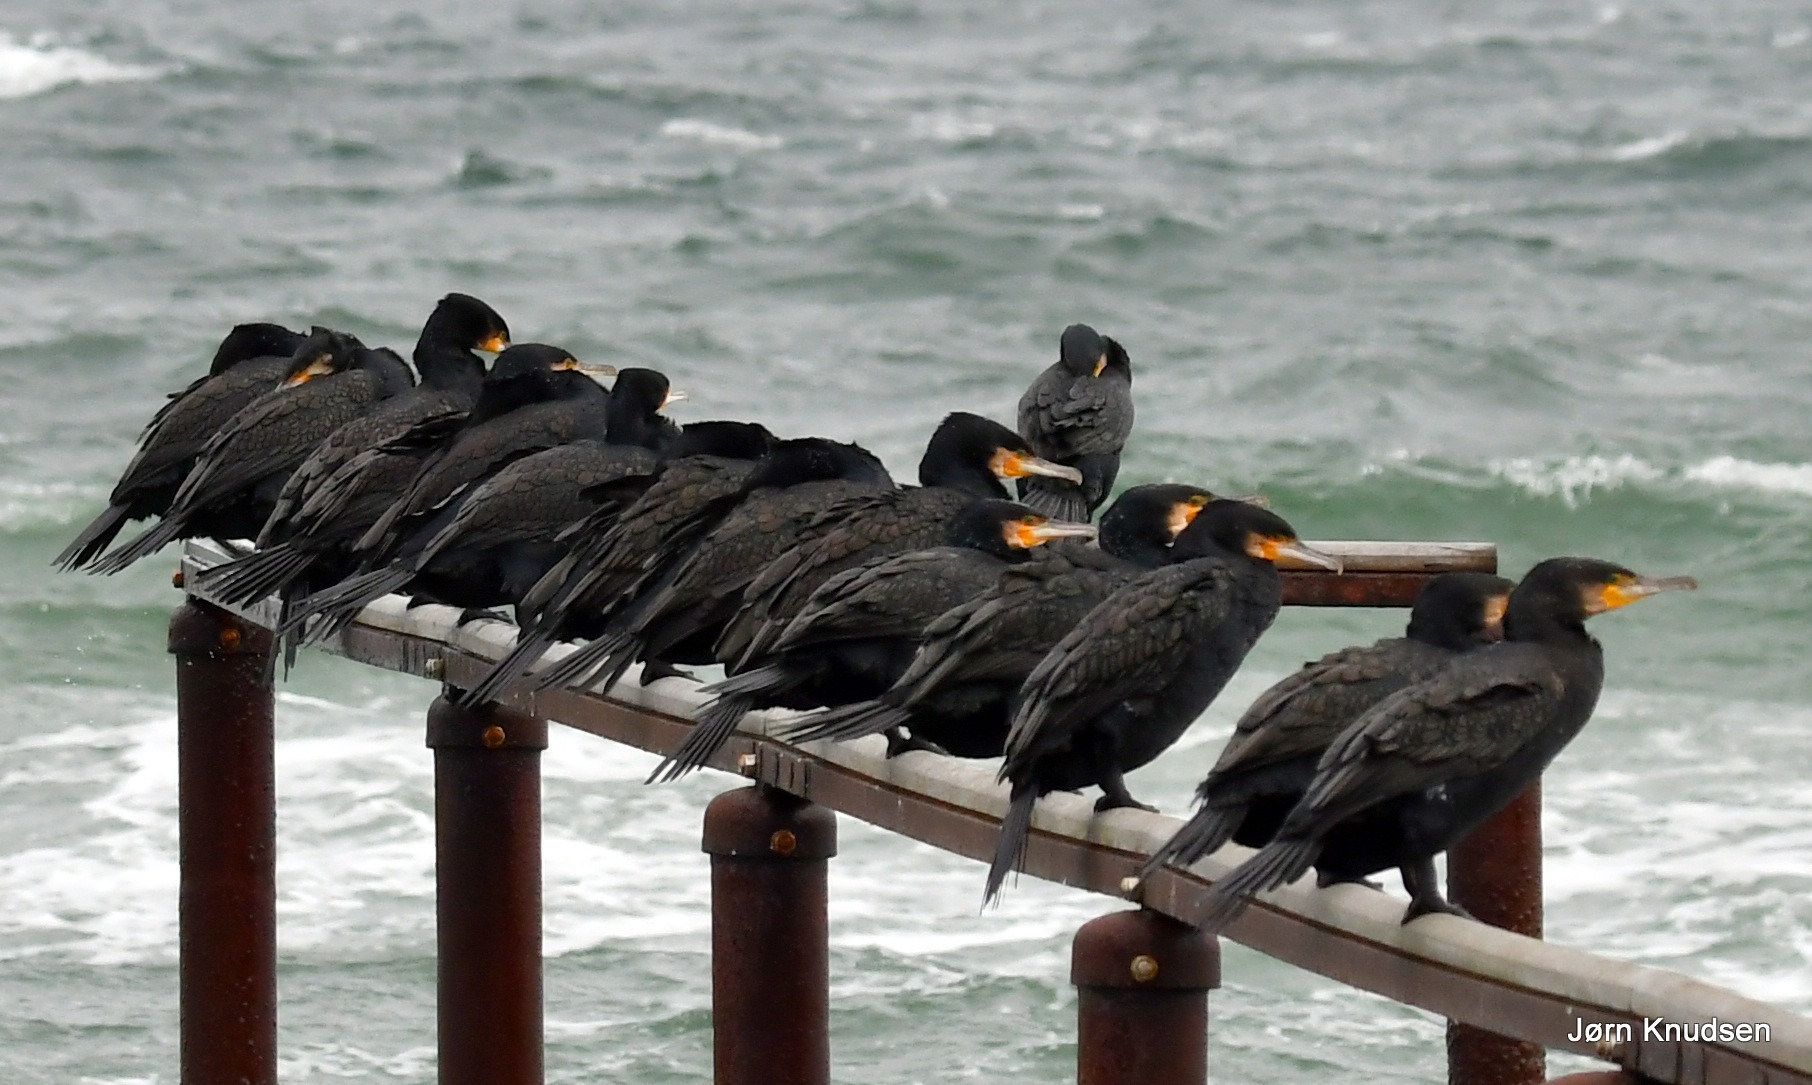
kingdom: Animalia
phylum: Chordata
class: Aves
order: Suliformes
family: Phalacrocoracidae
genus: Phalacrocorax
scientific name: Phalacrocorax carbo
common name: Skarv
